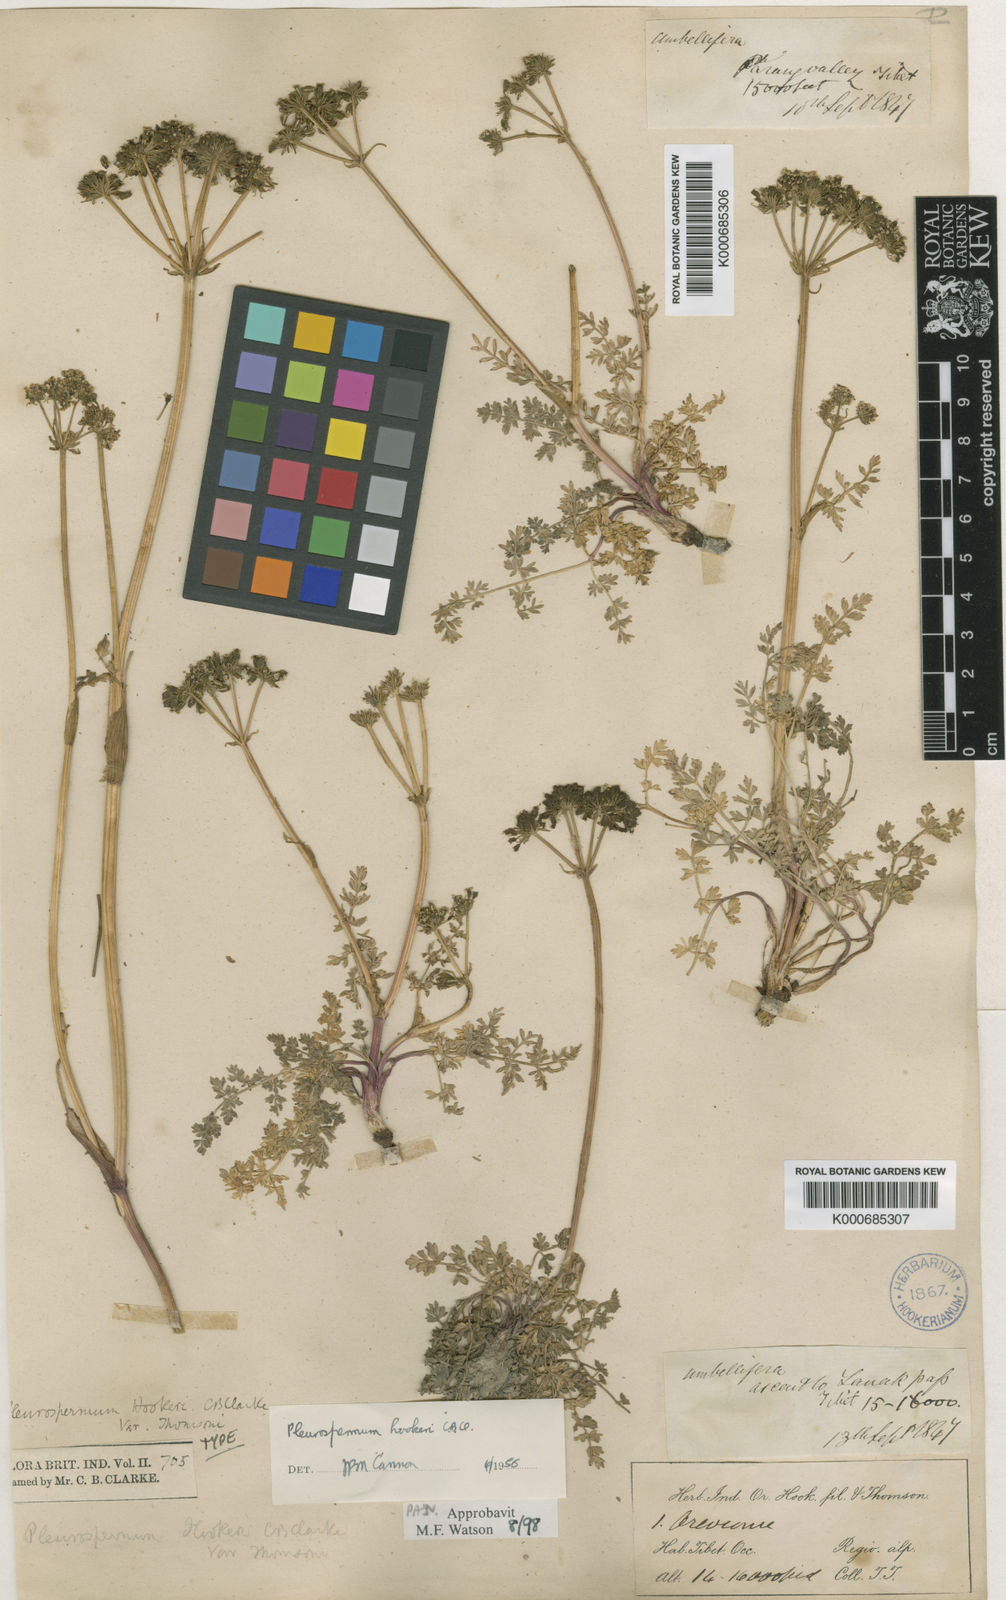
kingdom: Plantae
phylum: Tracheophyta
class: Magnoliopsida
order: Apiales
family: Apiaceae
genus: Pleurospermum
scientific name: Pleurospermum hookeri
